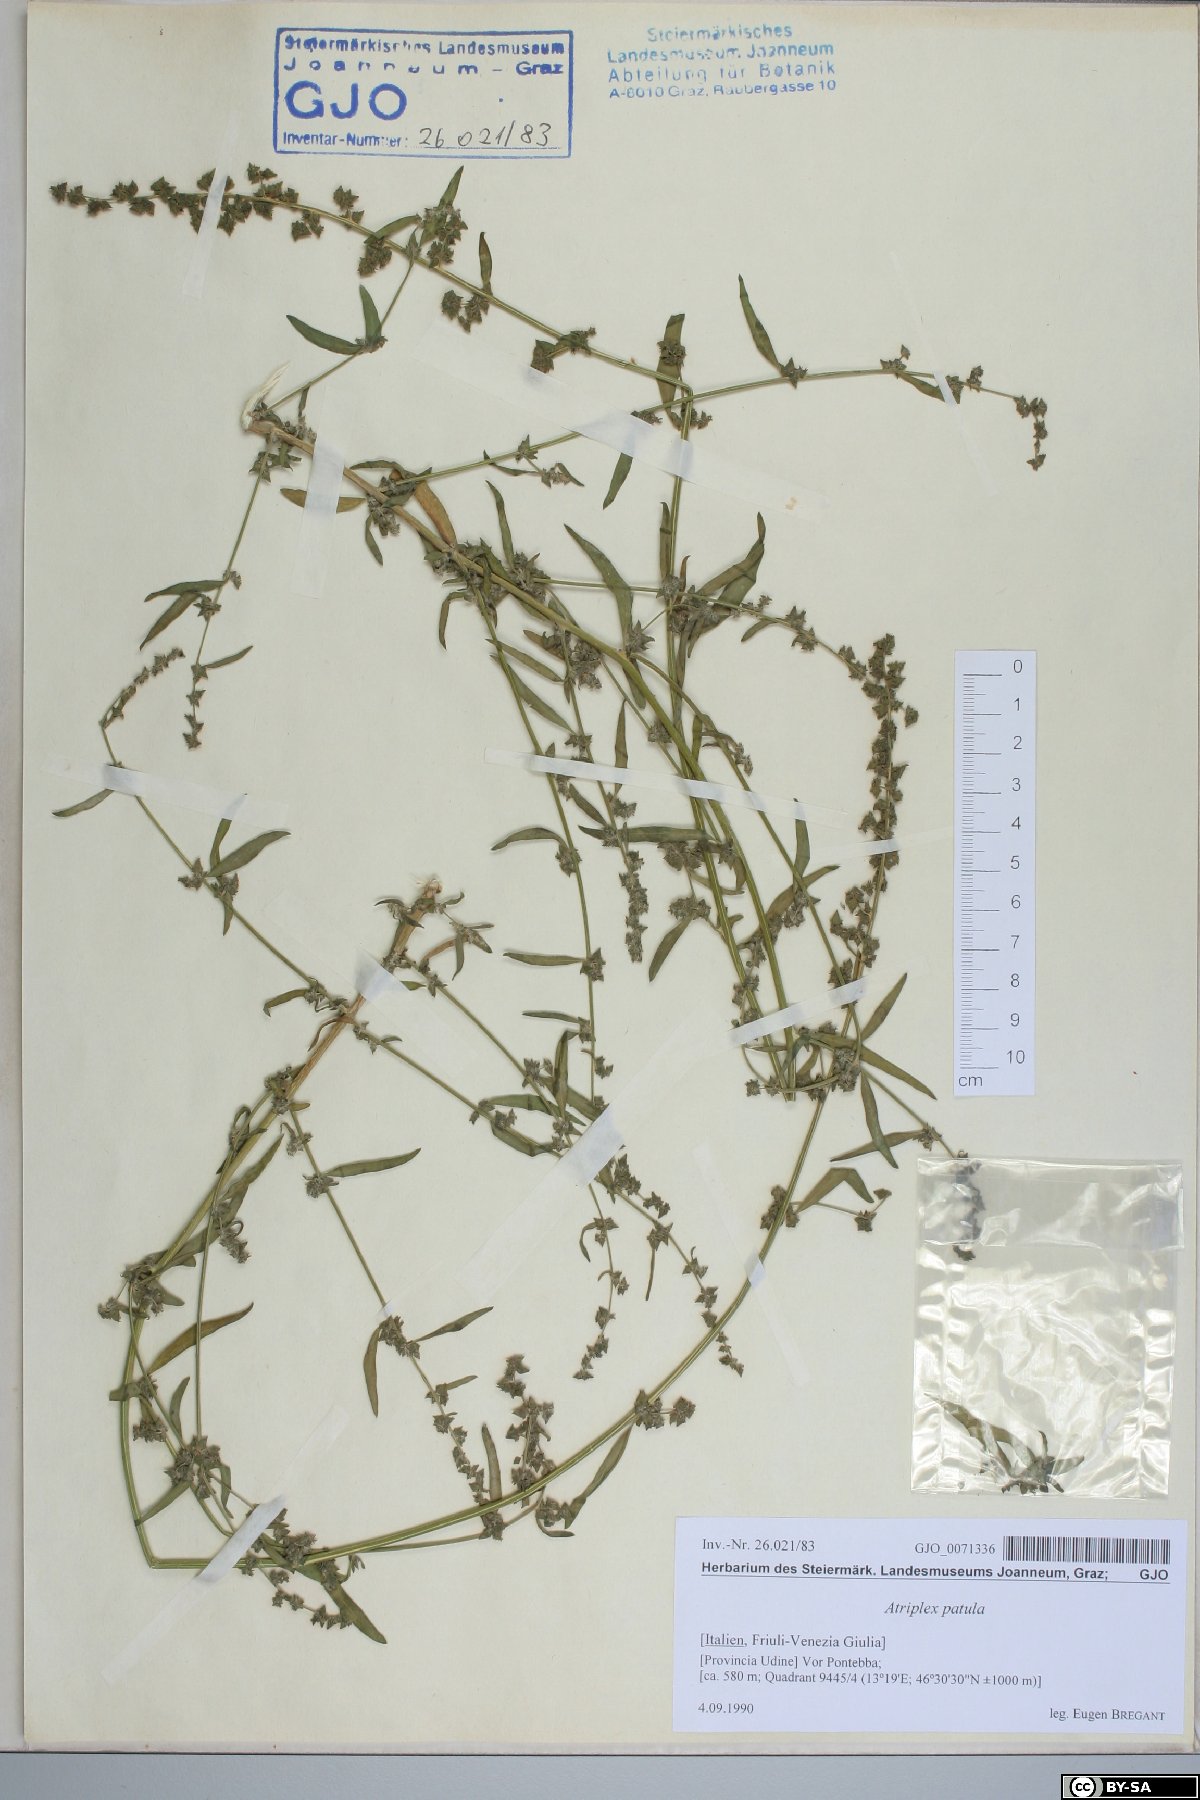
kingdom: Plantae
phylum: Tracheophyta
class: Magnoliopsida
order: Caryophyllales
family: Amaranthaceae
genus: Atriplex
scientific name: Atriplex patula
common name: Common orache
